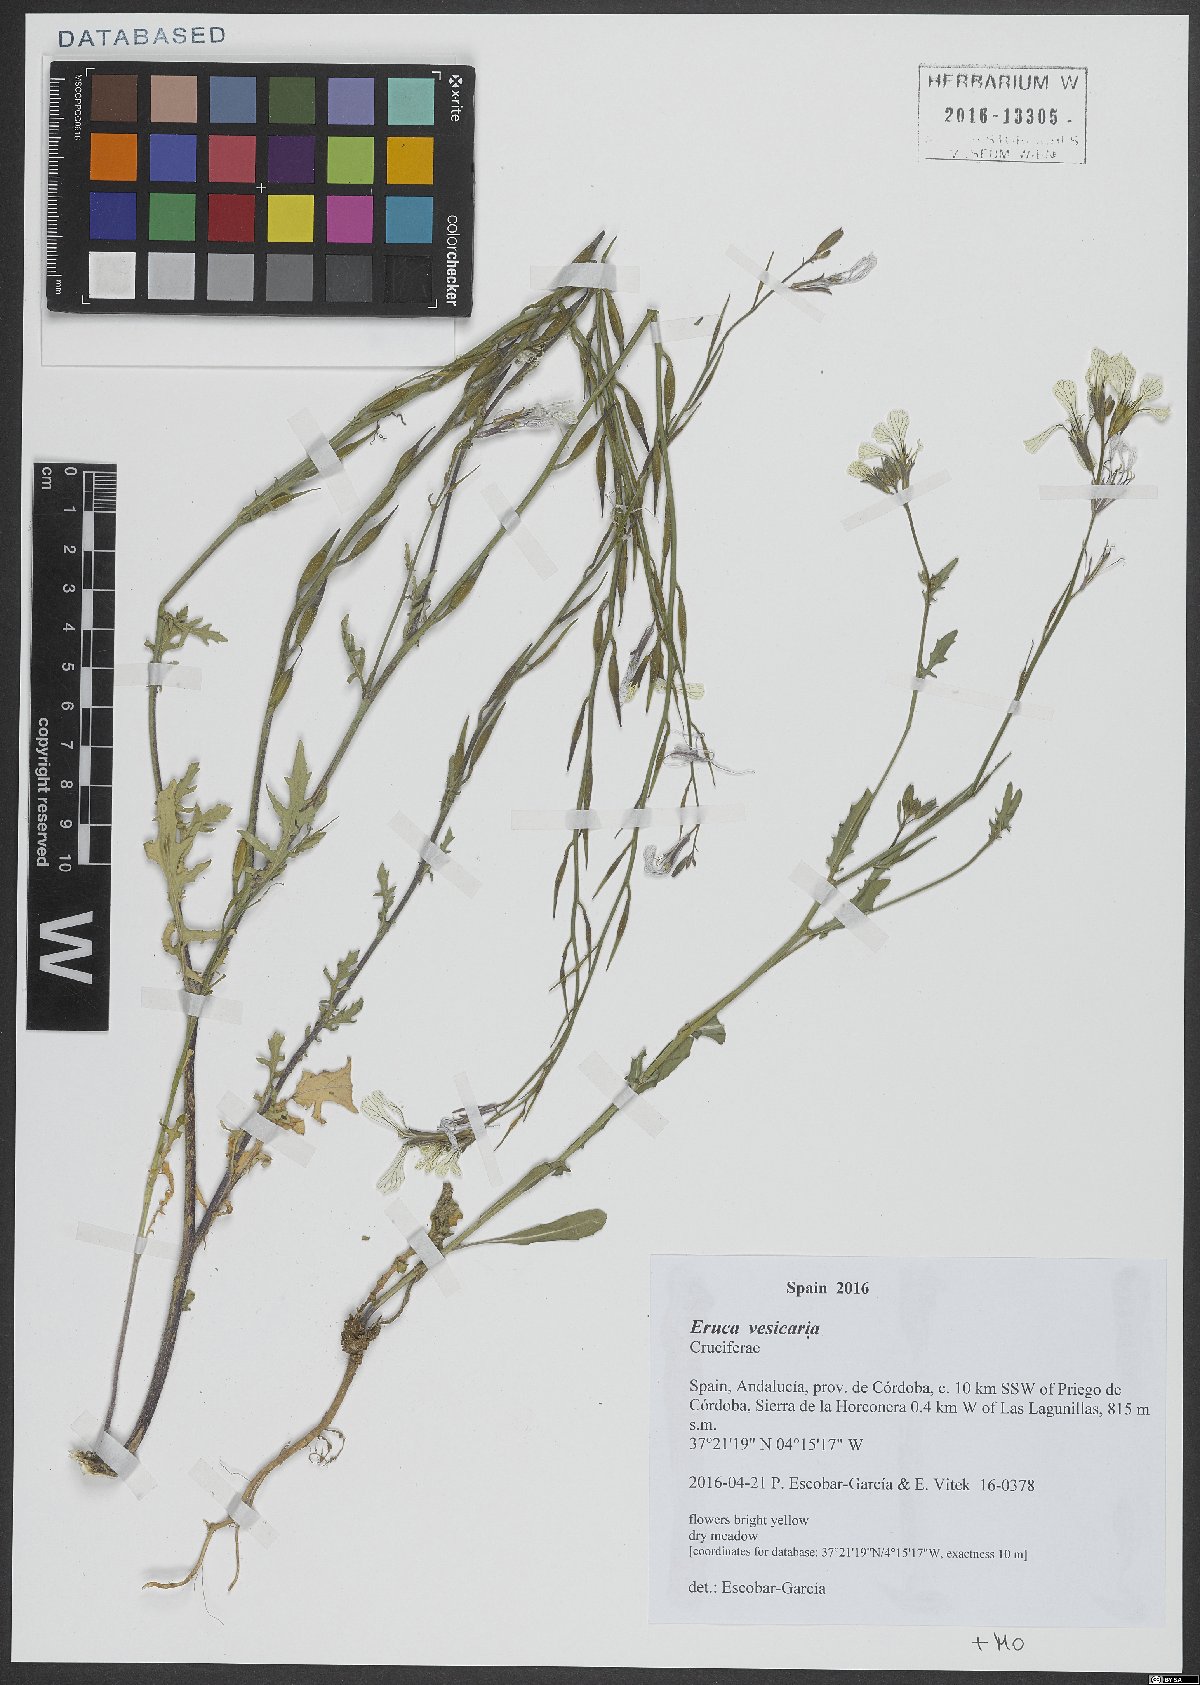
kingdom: Plantae
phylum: Tracheophyta
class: Magnoliopsida
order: Brassicales
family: Brassicaceae
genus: Eruca
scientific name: Eruca vesicaria
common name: Garden rocket
